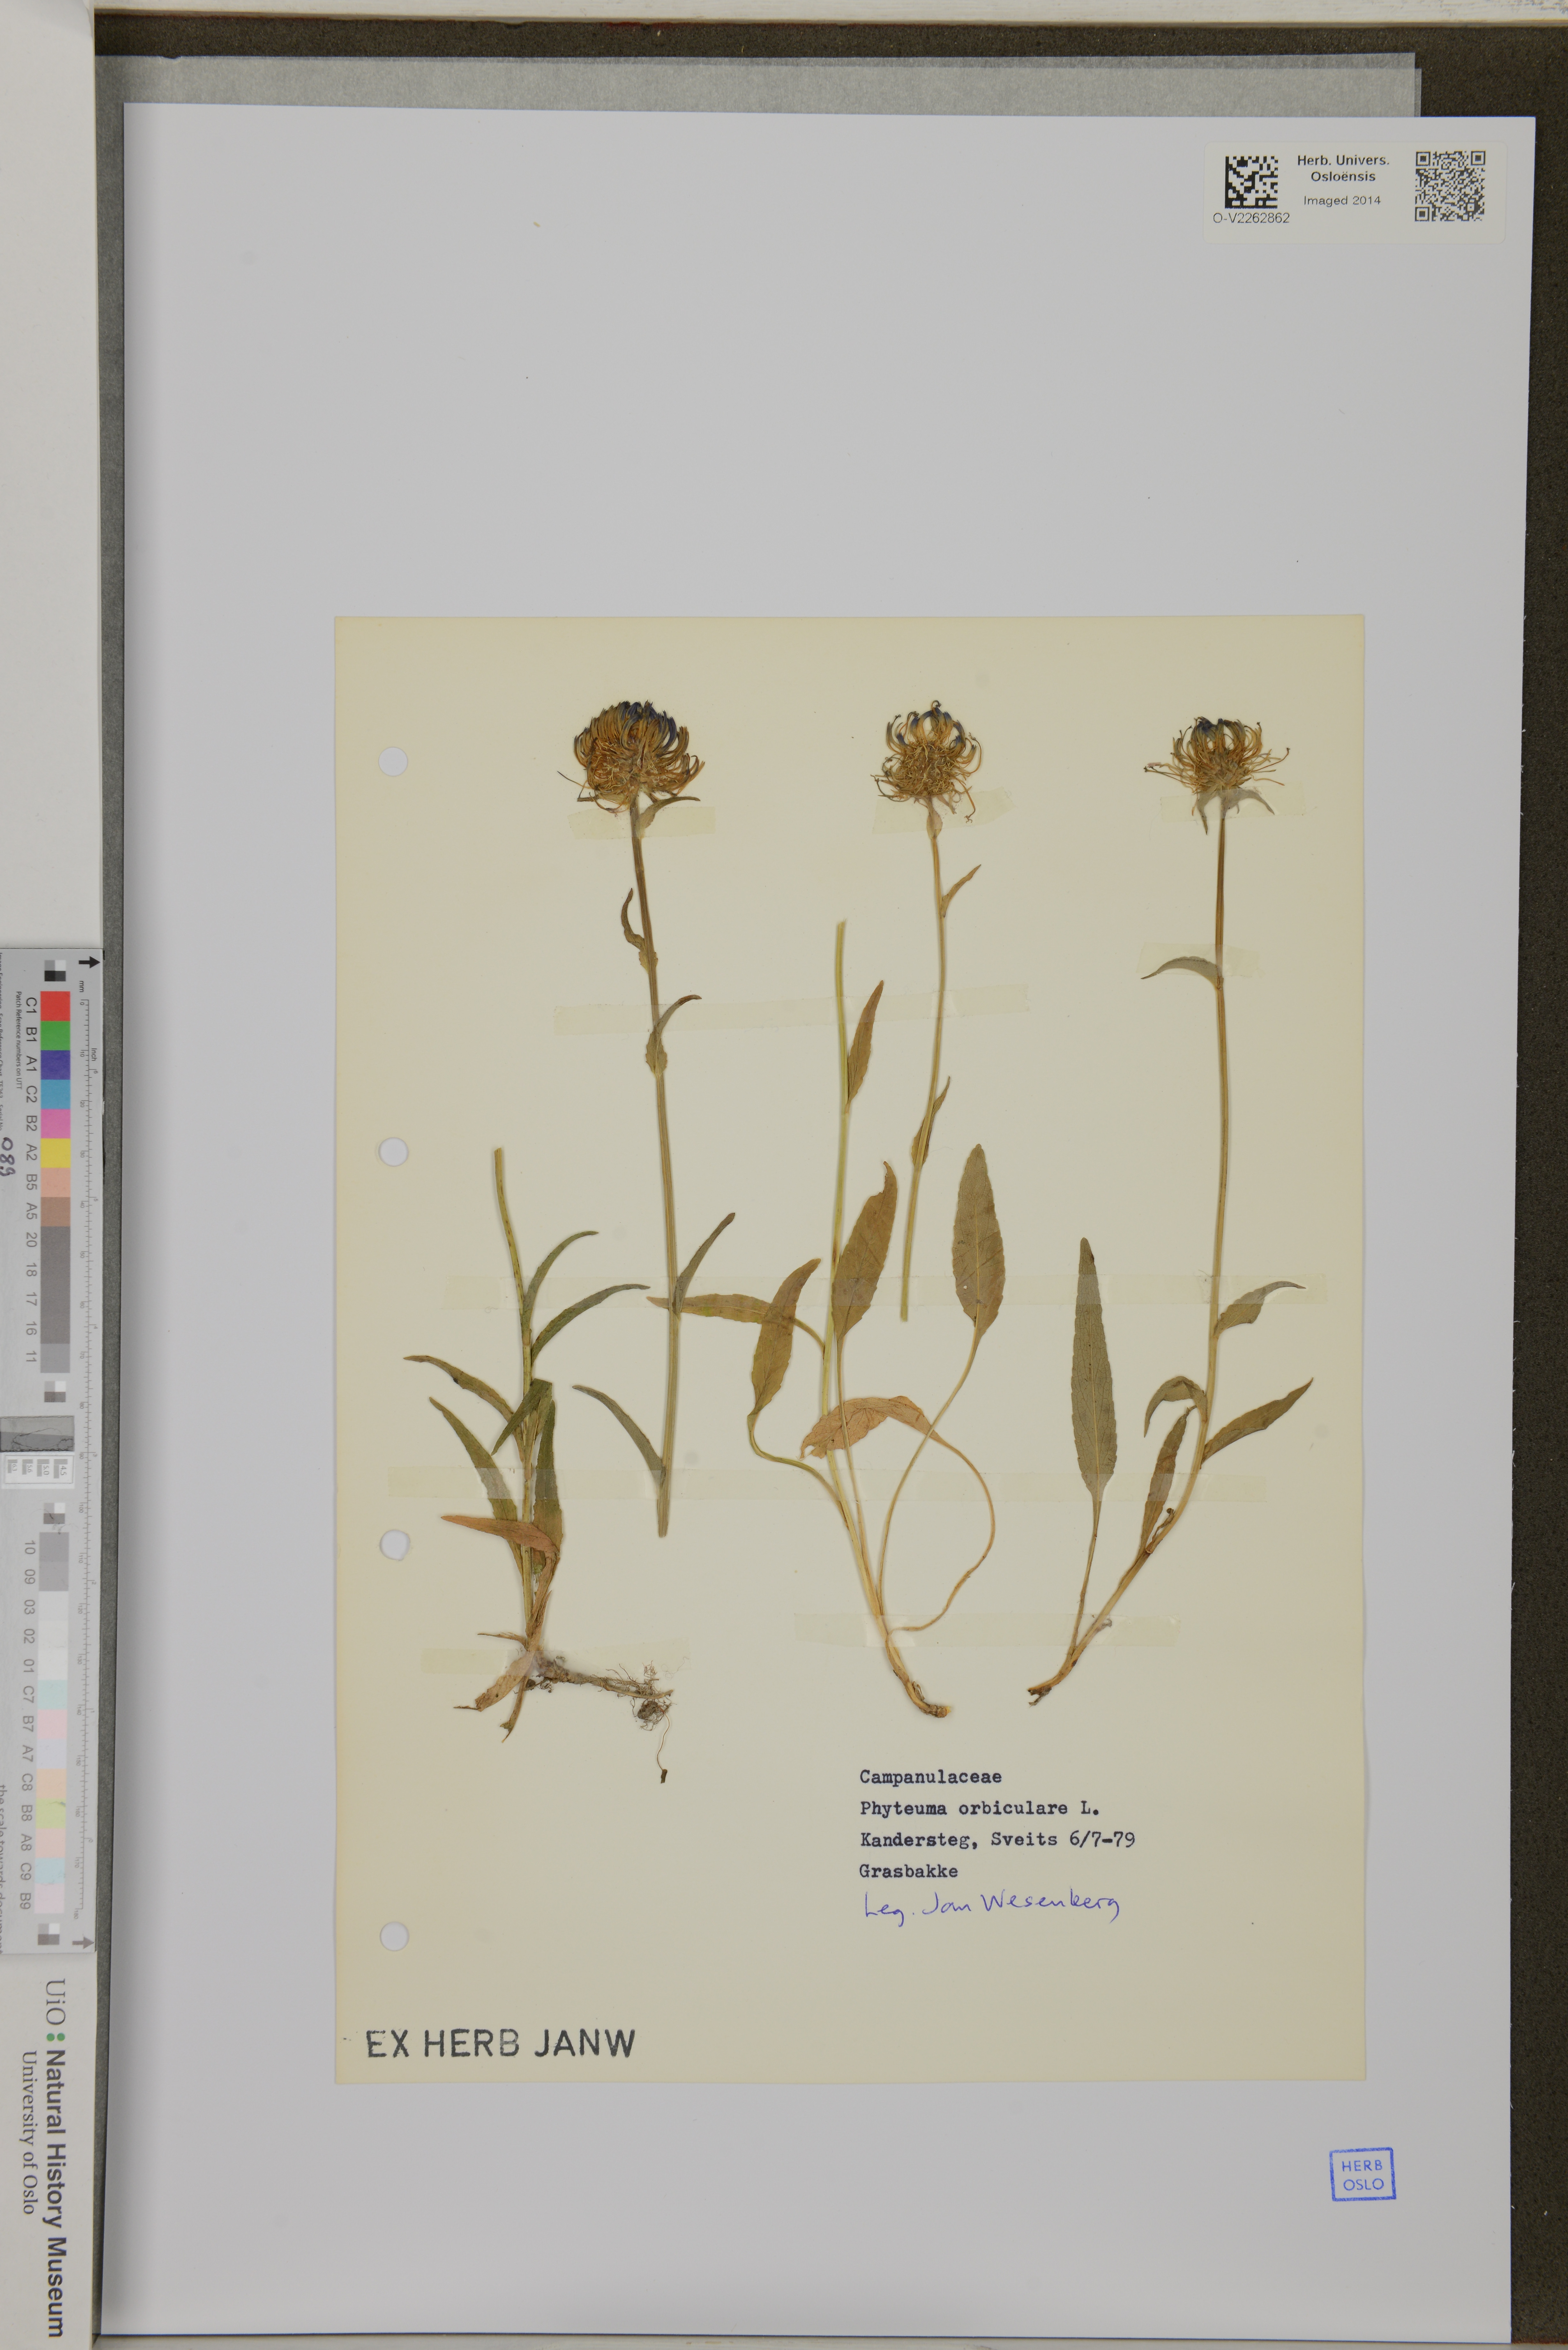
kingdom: Plantae
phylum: Tracheophyta
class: Magnoliopsida
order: Asterales
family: Campanulaceae
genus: Phyteuma
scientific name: Phyteuma orbiculare
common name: Round-headed rampion
